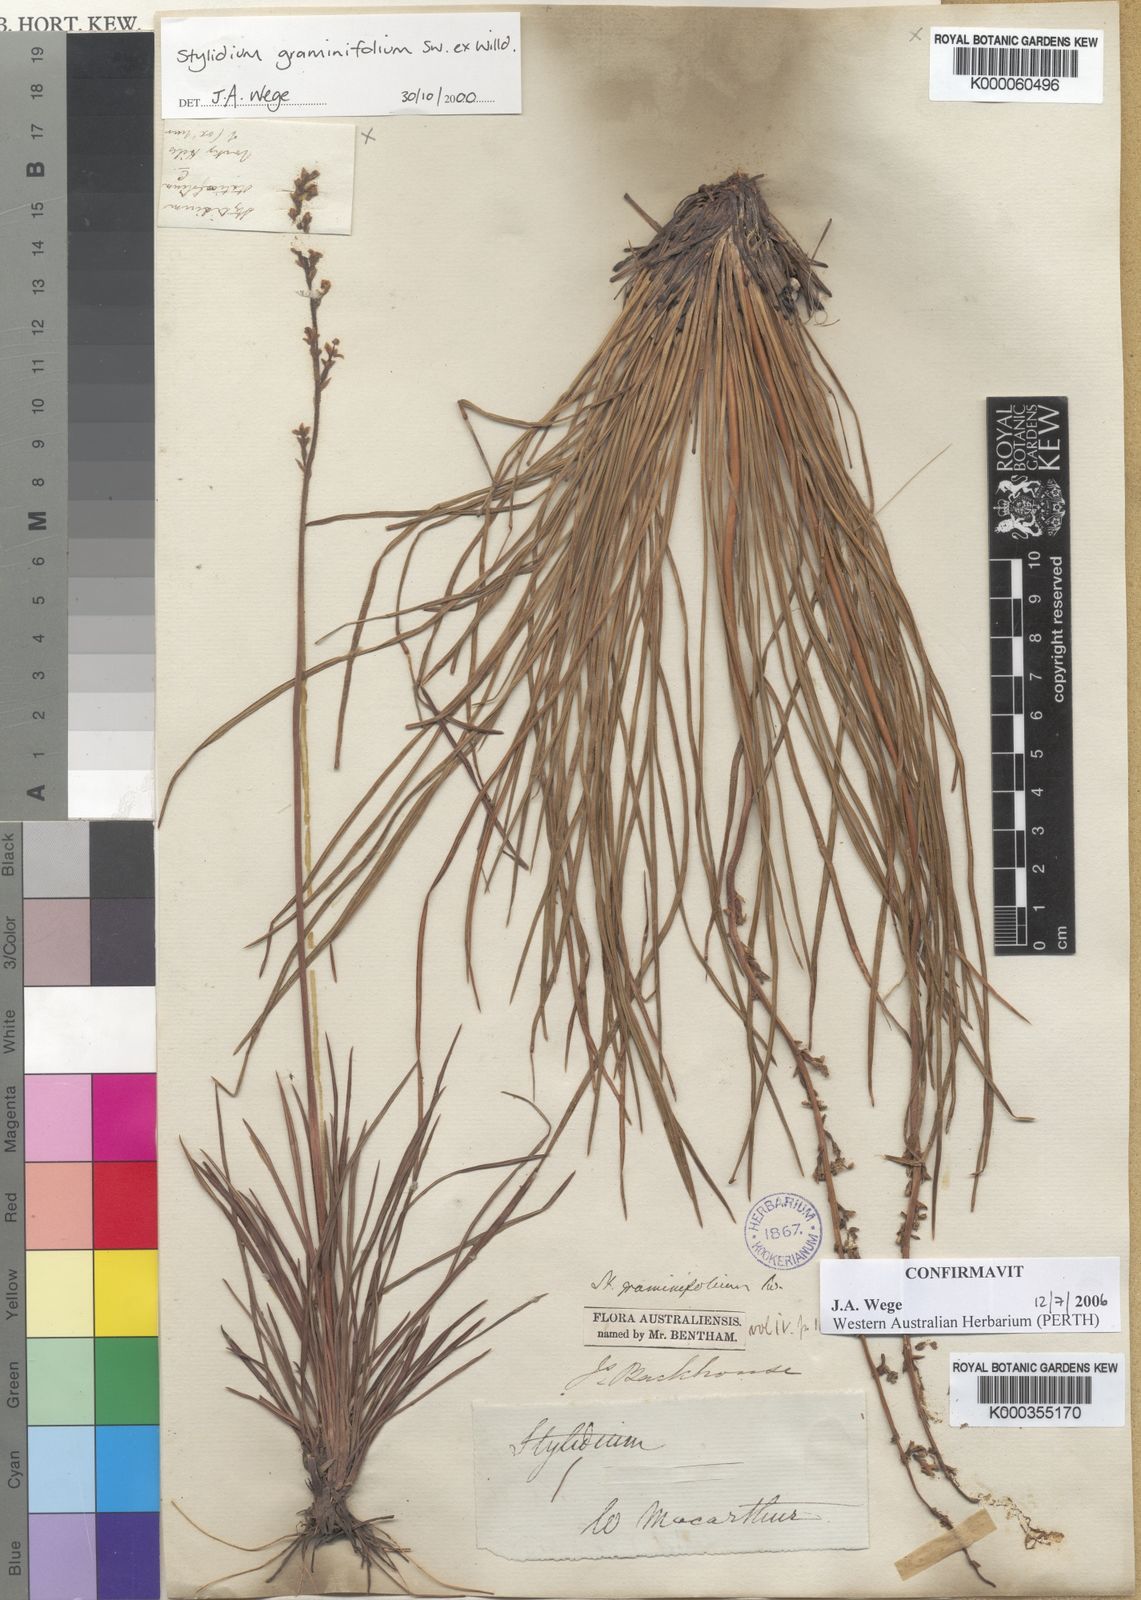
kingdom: Plantae
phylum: Tracheophyta
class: Magnoliopsida
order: Asterales
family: Stylidiaceae
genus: Stylidium
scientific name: Stylidium graminifolium
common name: Grass triggerplant
